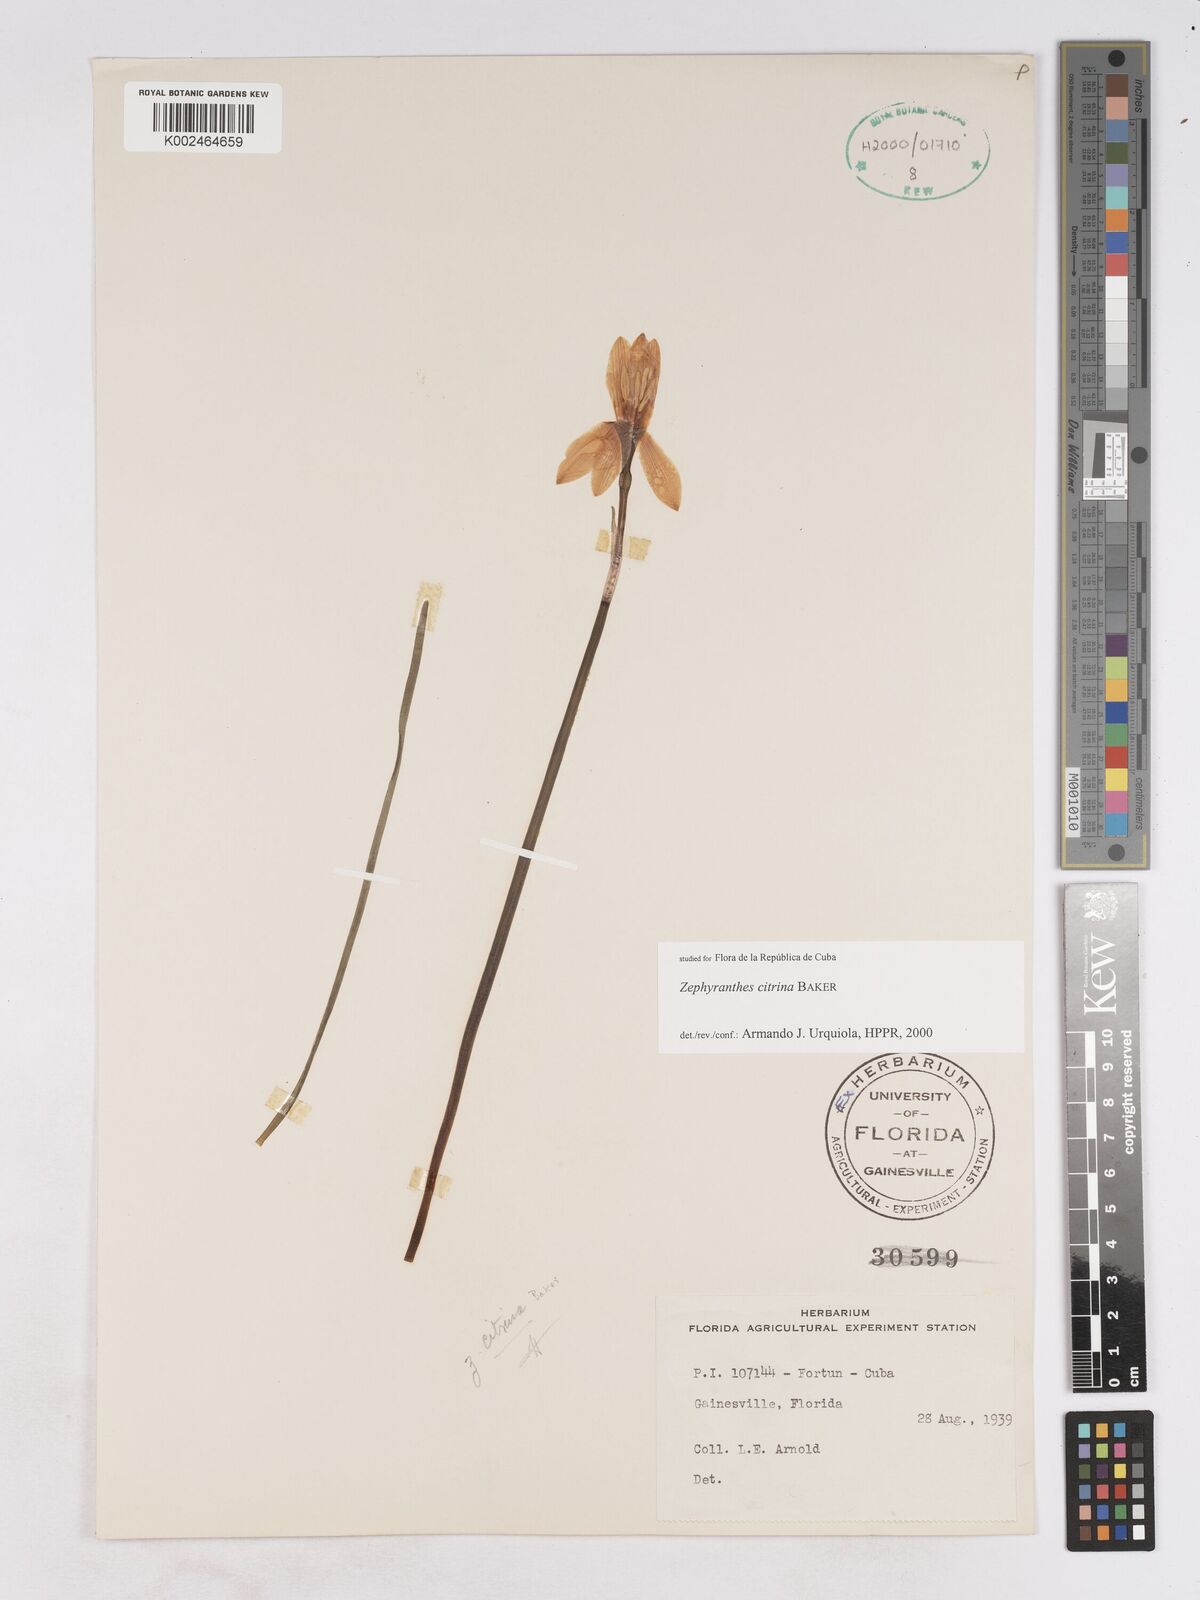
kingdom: Plantae
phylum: Tracheophyta
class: Liliopsida
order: Asparagales
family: Amaryllidaceae
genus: Zephyranthes
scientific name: Zephyranthes citrina
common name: Citron zephyrlily
